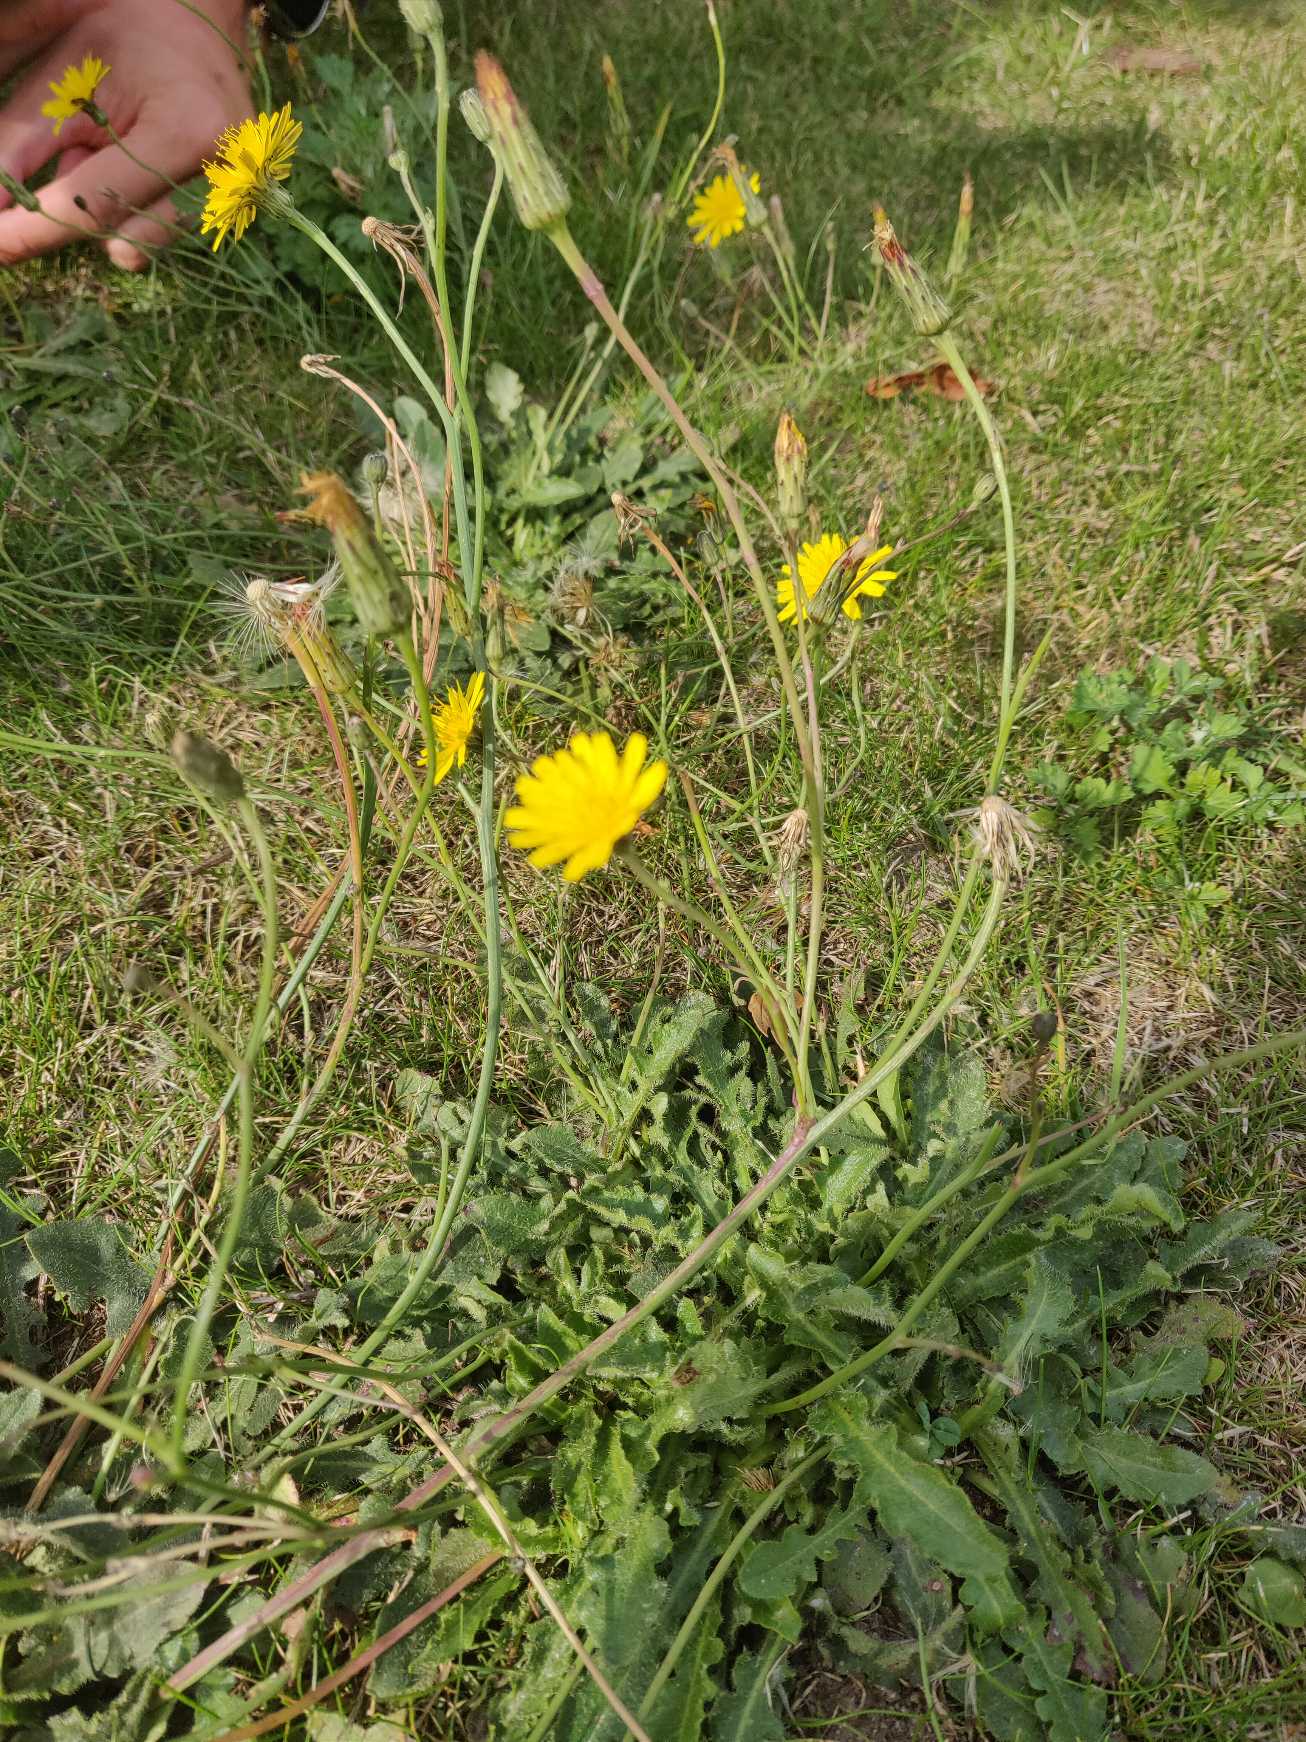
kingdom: Plantae
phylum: Tracheophyta
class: Magnoliopsida
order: Asterales
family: Asteraceae
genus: Hypochaeris
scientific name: Hypochaeris radicata
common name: Almindelig kongepen
